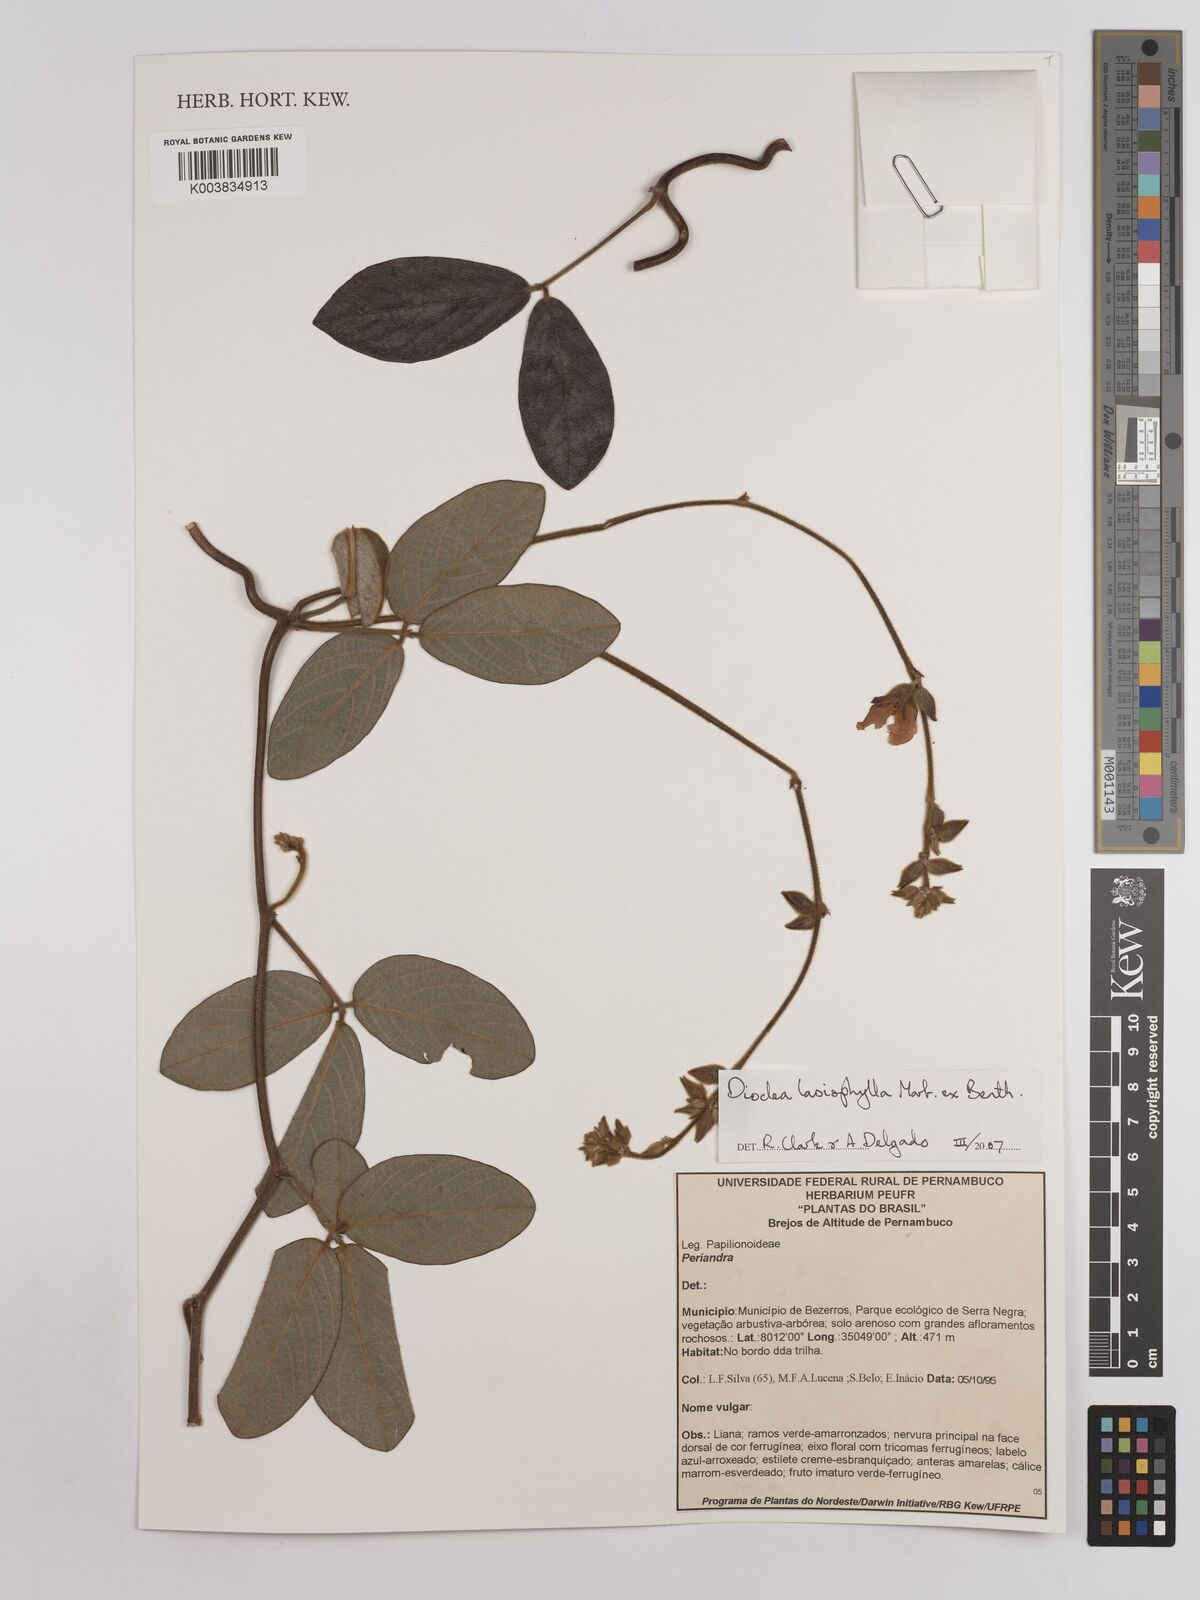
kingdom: Plantae
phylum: Tracheophyta
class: Magnoliopsida
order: Fabales
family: Fabaceae
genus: Dioclea
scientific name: Dioclea lasiophylla
